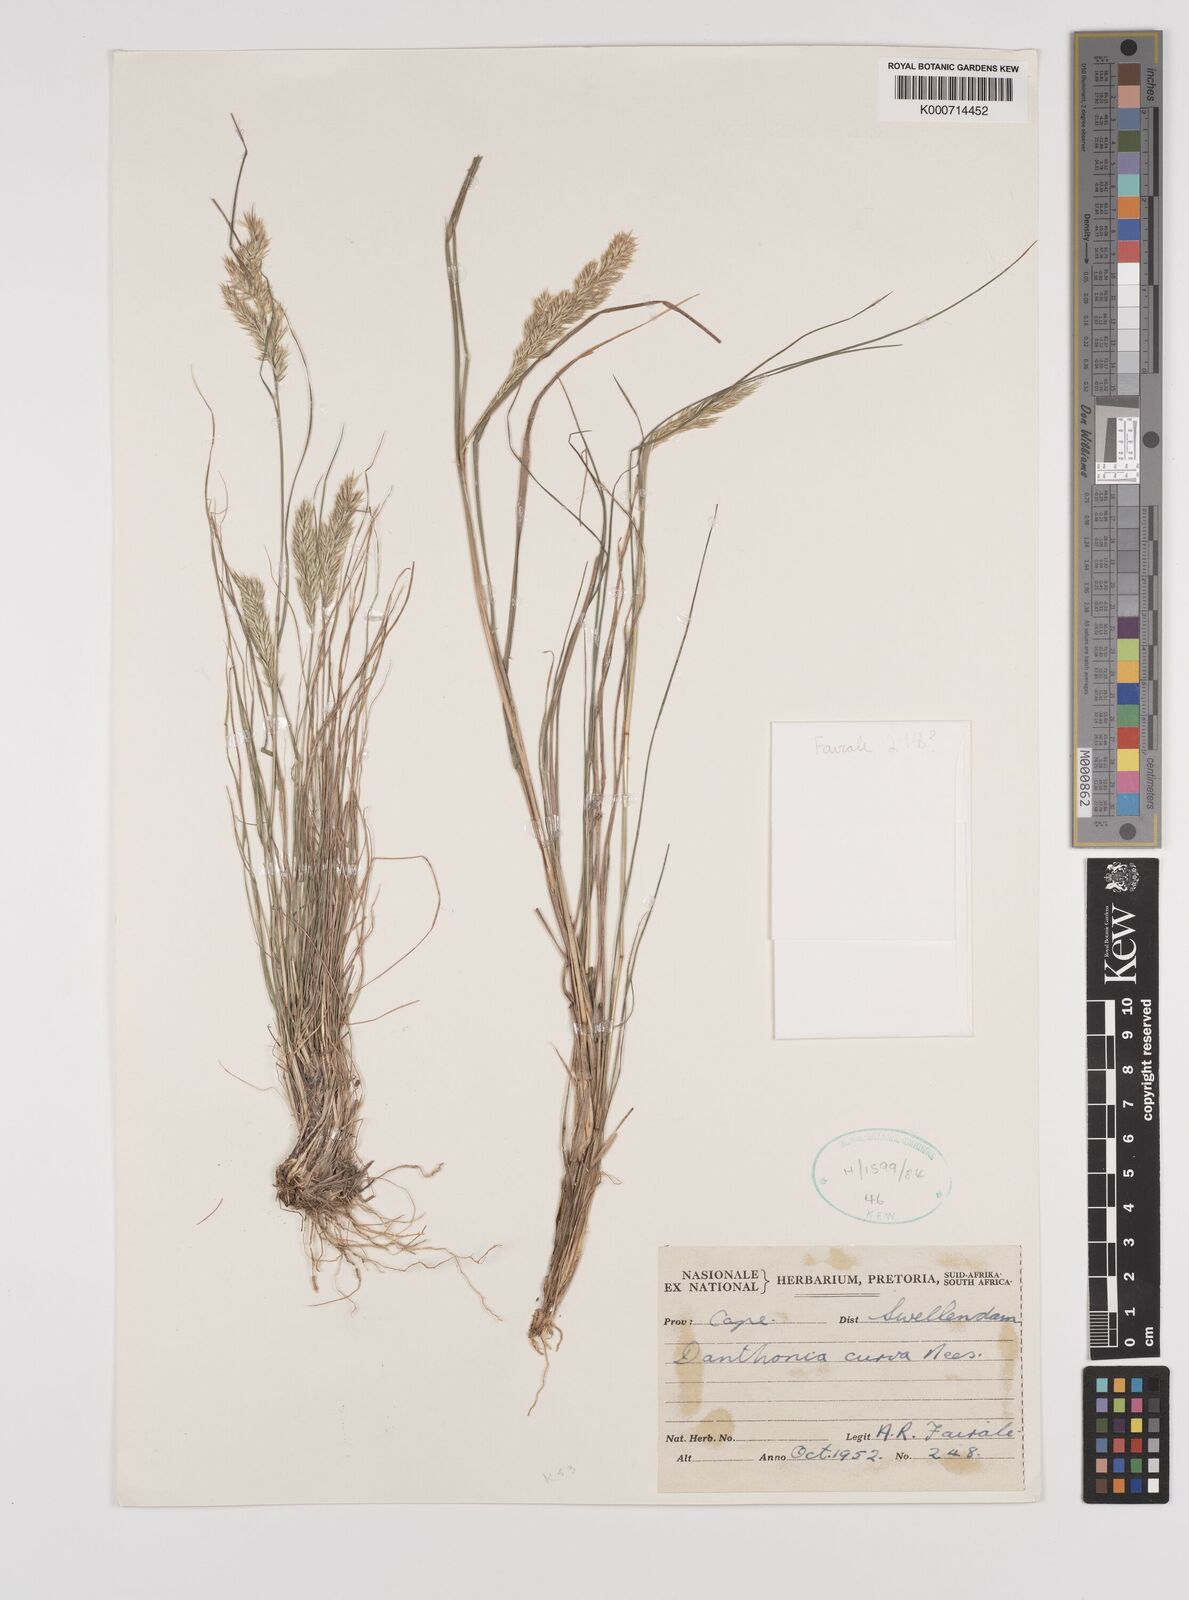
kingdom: Plantae
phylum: Tracheophyta
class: Liliopsida
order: Poales
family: Poaceae
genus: Rytidosperma
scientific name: Rytidosperma
